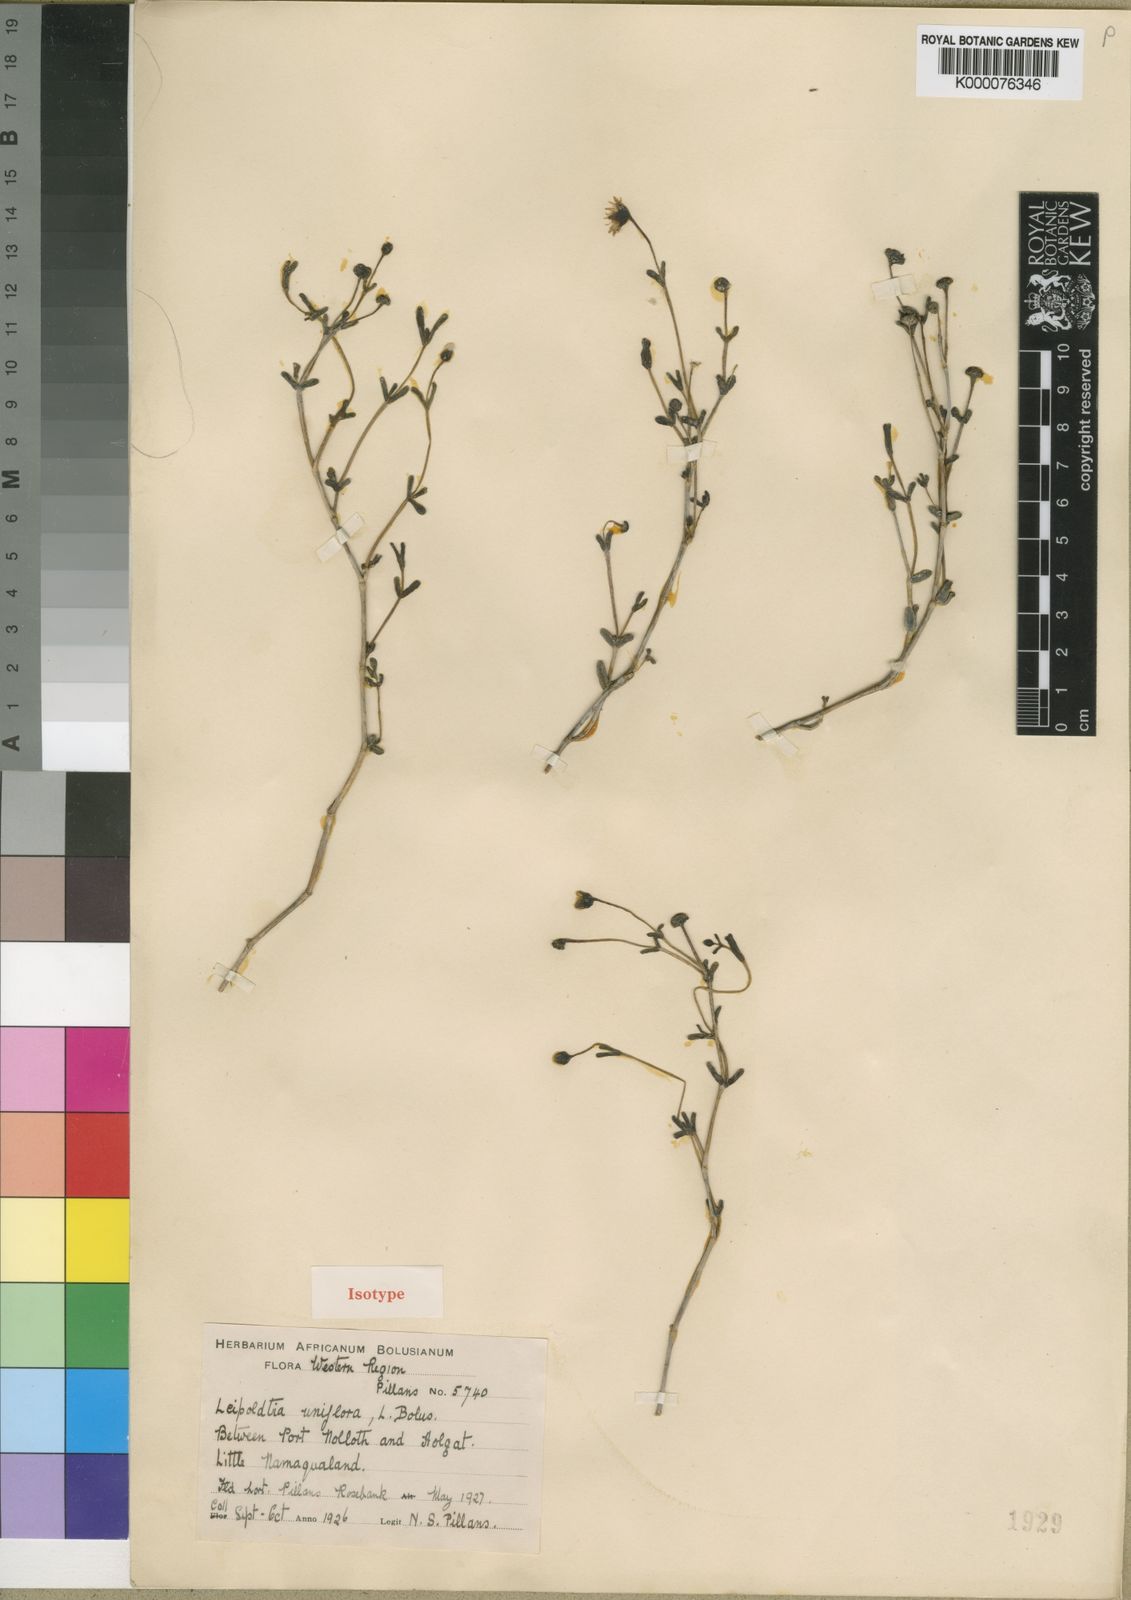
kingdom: Plantae
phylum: Tracheophyta
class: Magnoliopsida
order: Caryophyllales
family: Aizoaceae
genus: Leipoldtia
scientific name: Leipoldtia uniflora
